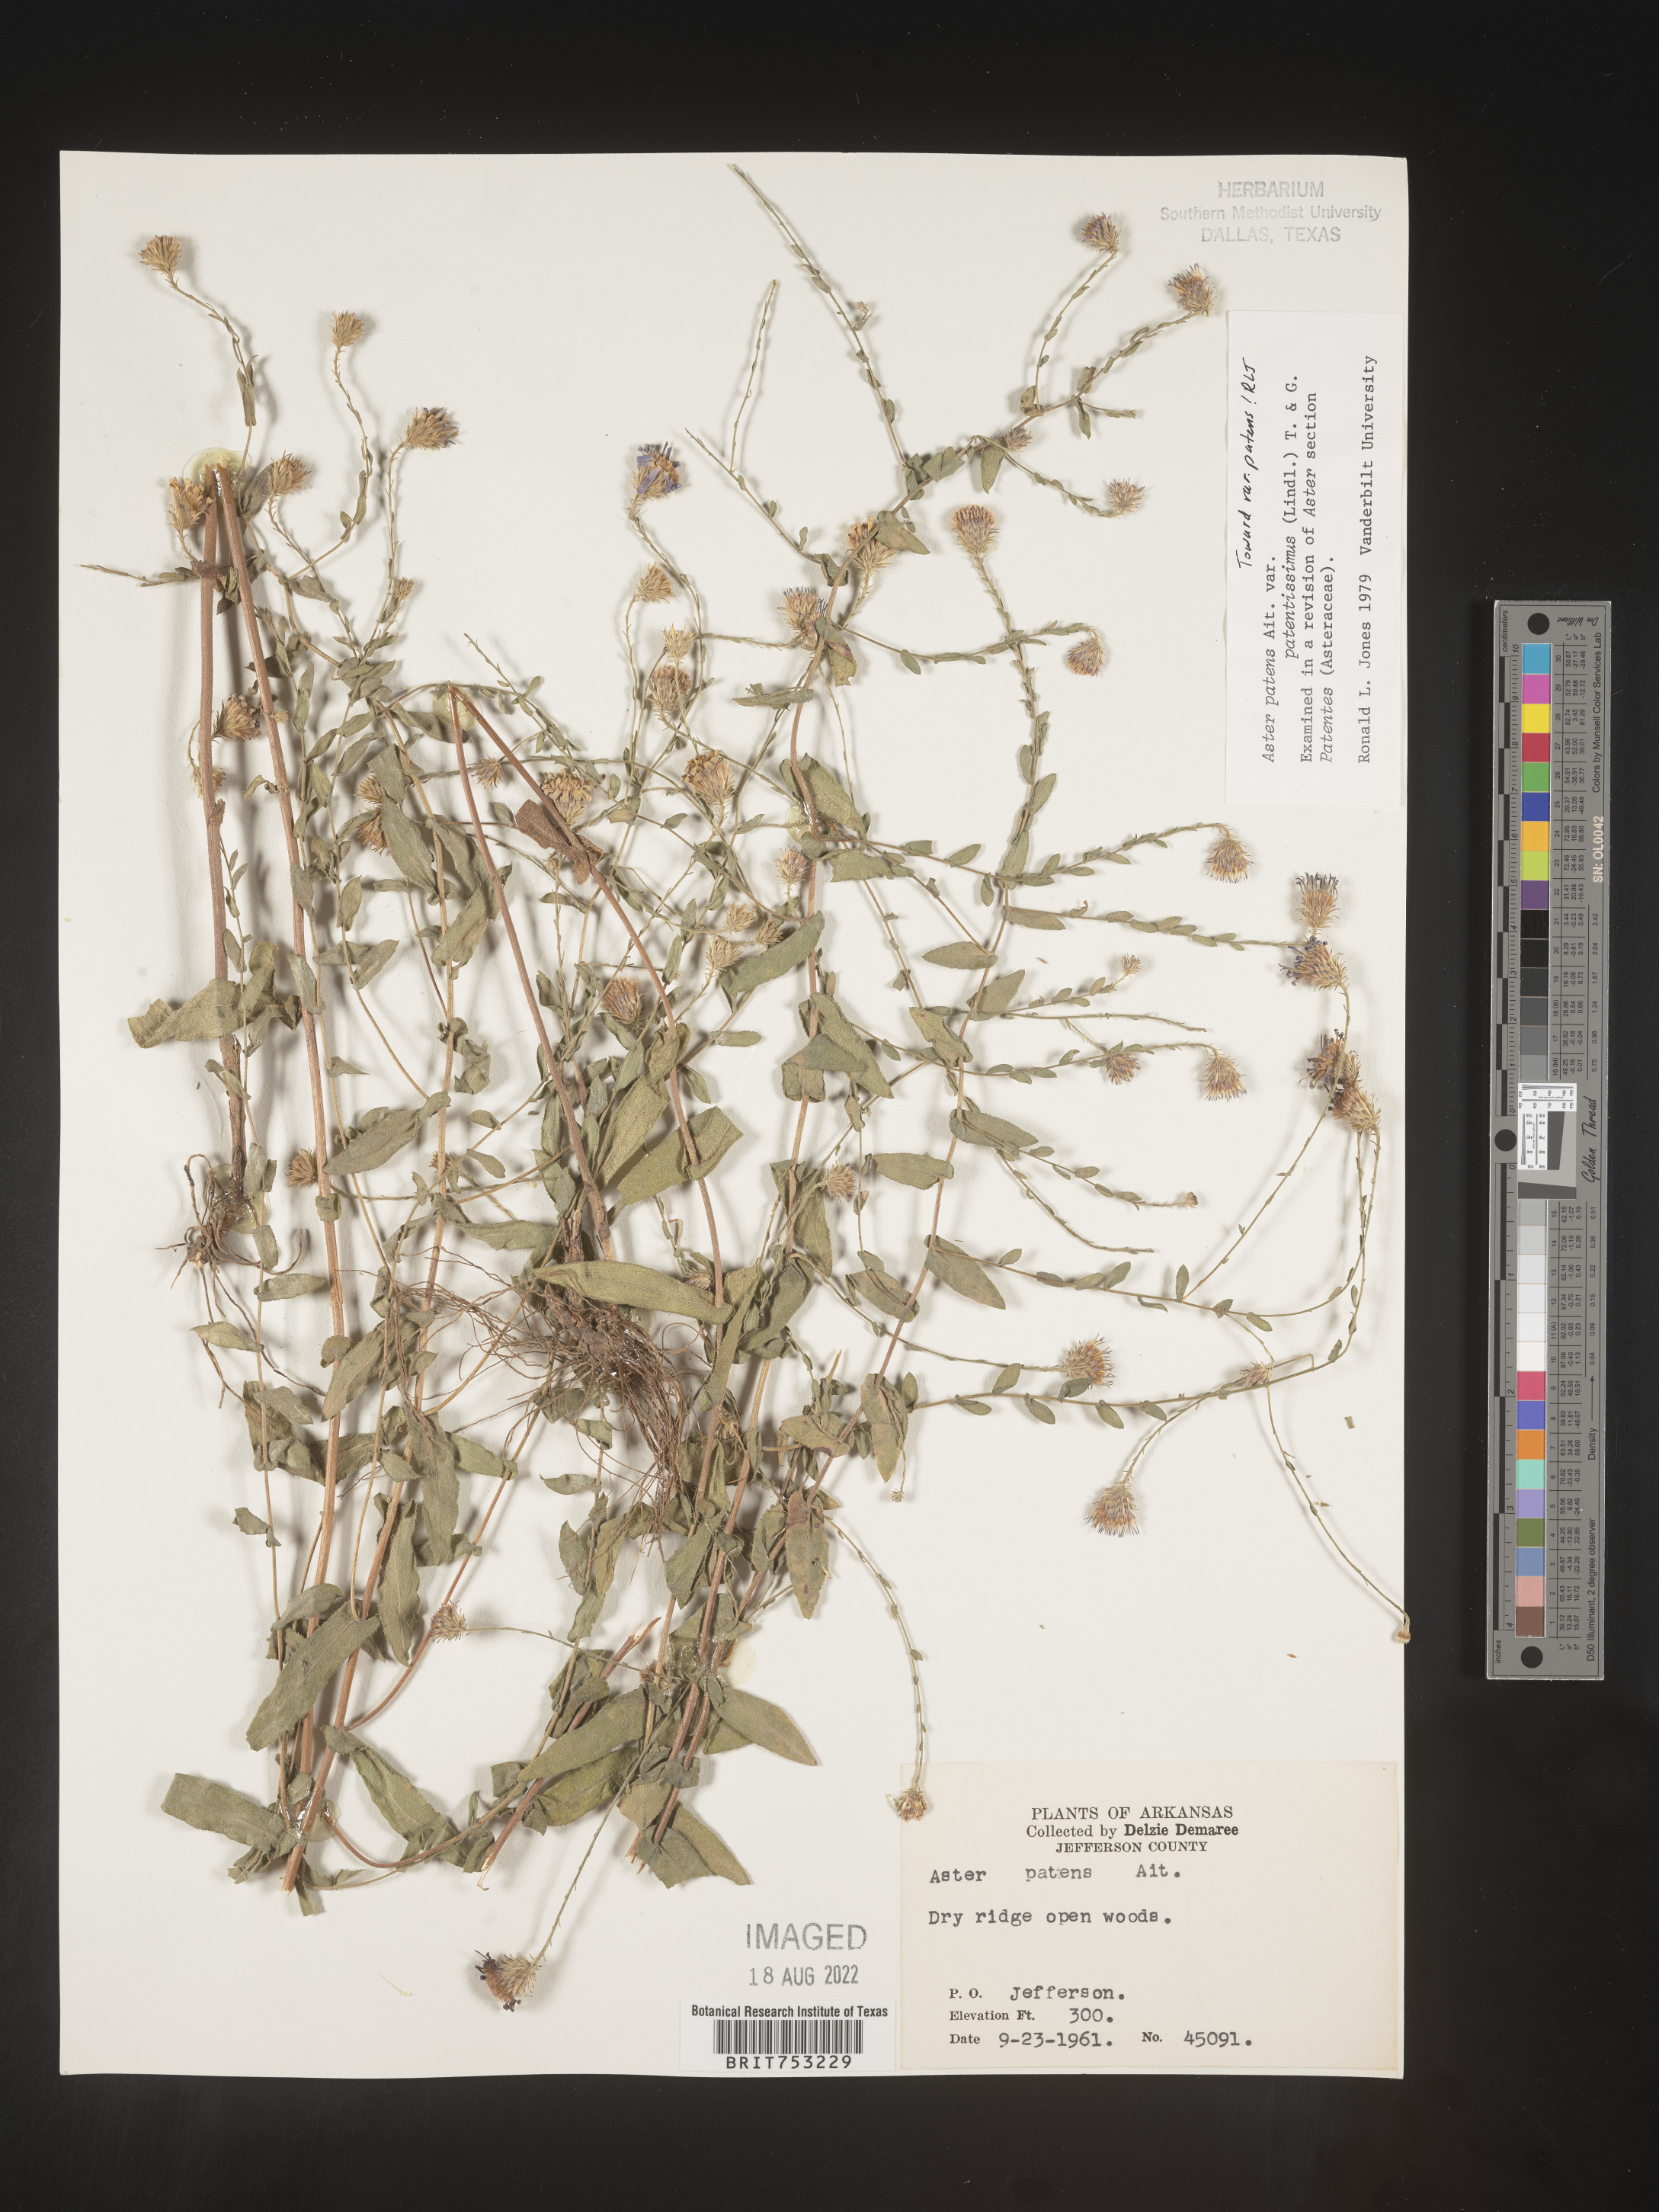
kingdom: Plantae
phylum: Tracheophyta
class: Magnoliopsida
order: Asterales
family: Asteraceae
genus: Symphyotrichum
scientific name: Symphyotrichum patens
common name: Late purple aster
